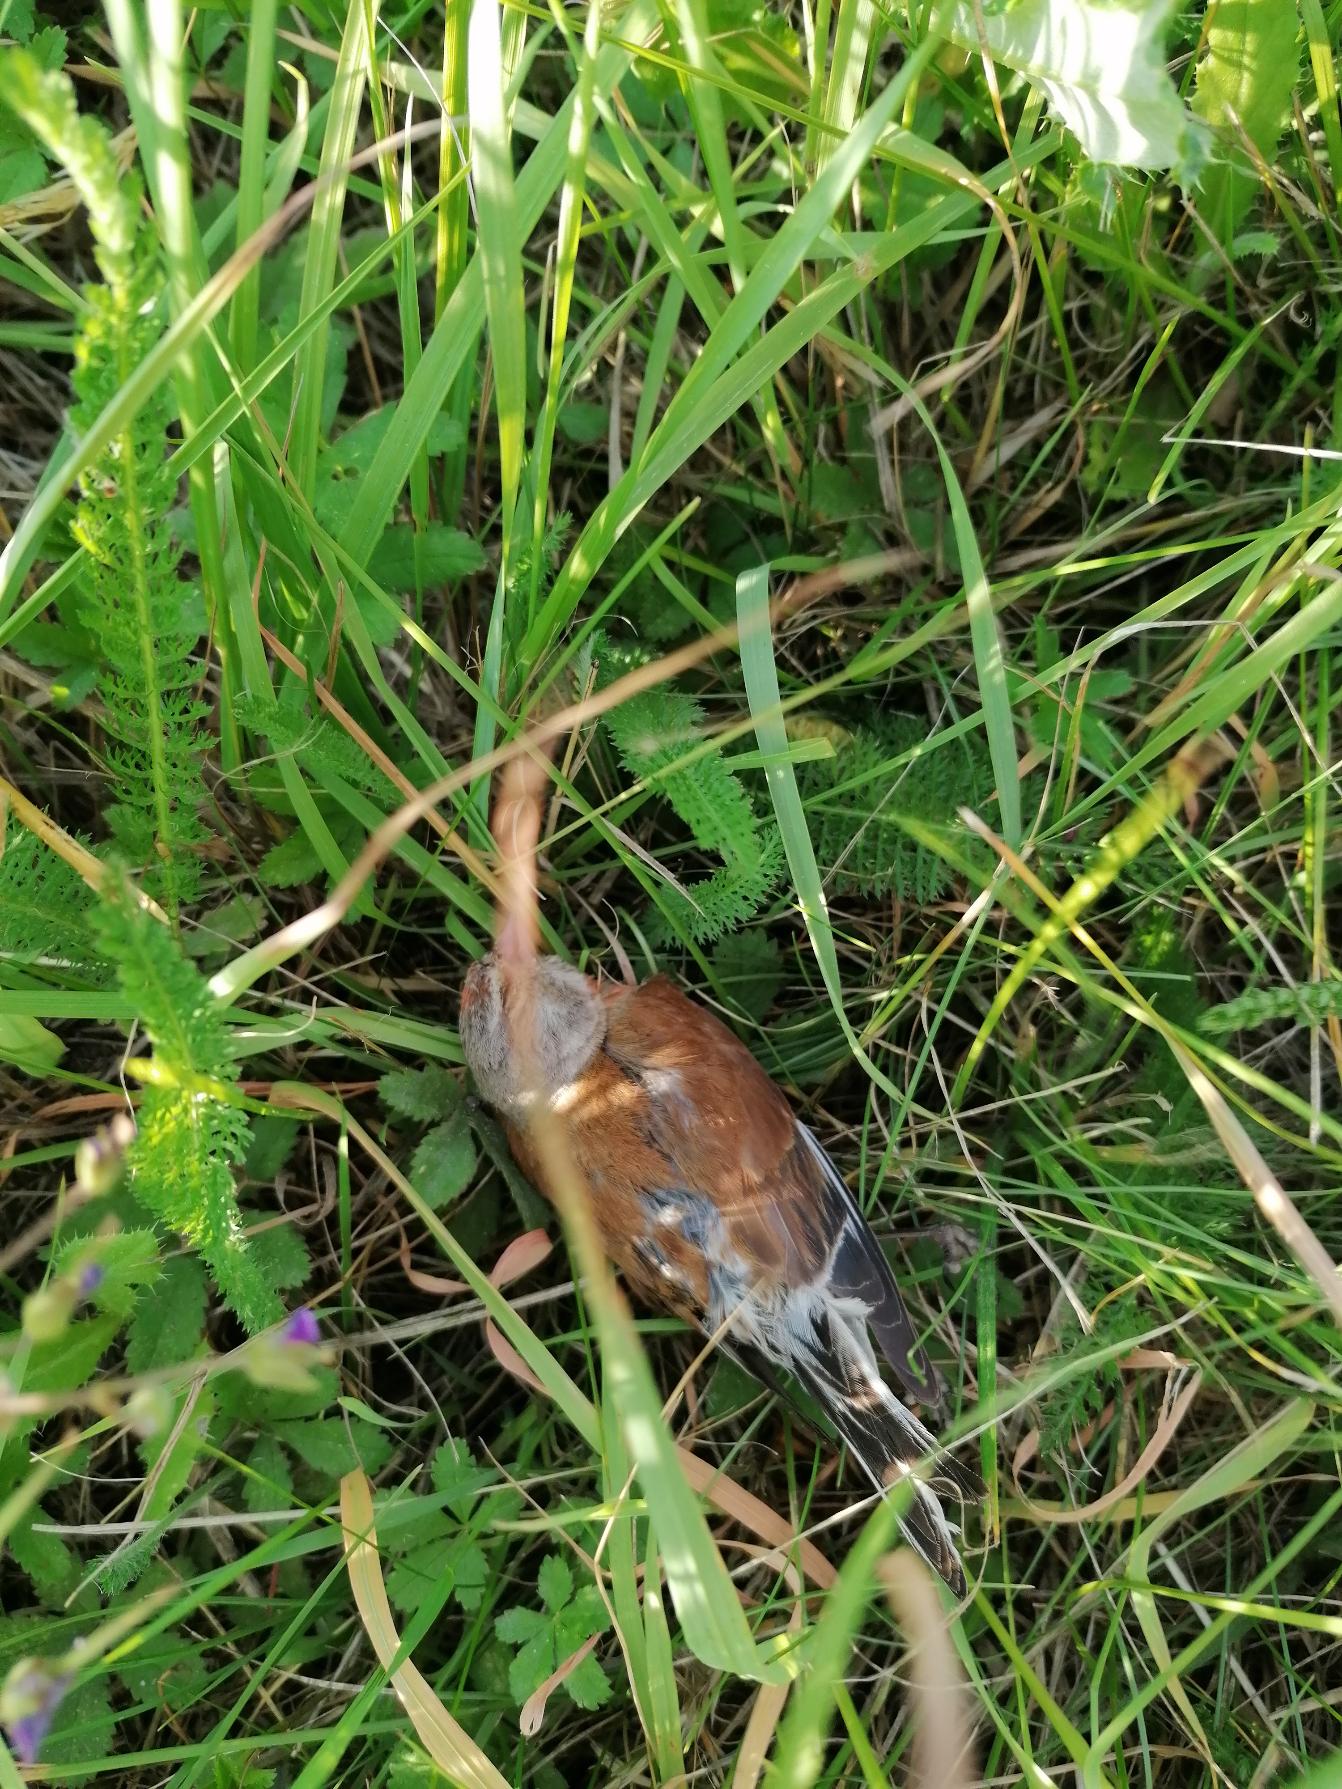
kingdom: Animalia
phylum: Chordata
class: Aves
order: Passeriformes
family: Fringillidae
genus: Linaria
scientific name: Linaria cannabina
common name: Tornirisk
